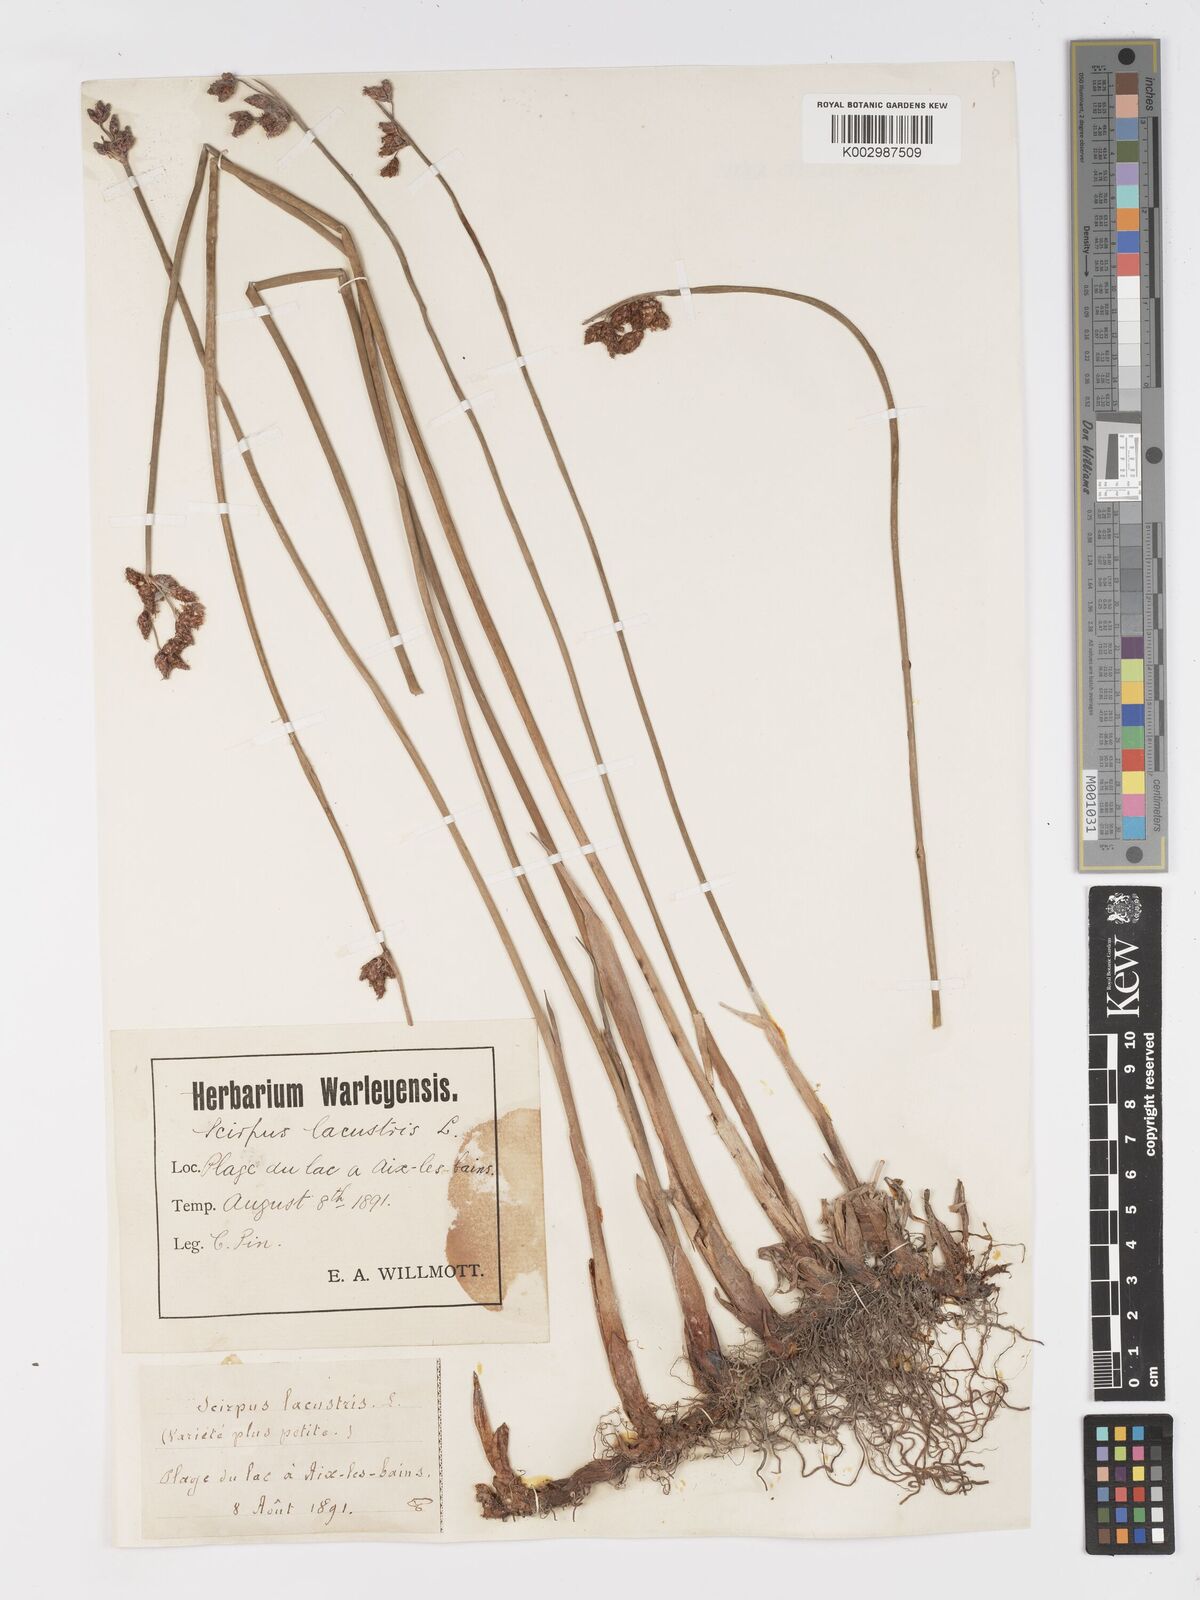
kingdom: Plantae
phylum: Tracheophyta
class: Liliopsida
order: Poales
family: Cyperaceae
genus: Schoenoplectus
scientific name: Schoenoplectus lacustris
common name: Common club-rush
